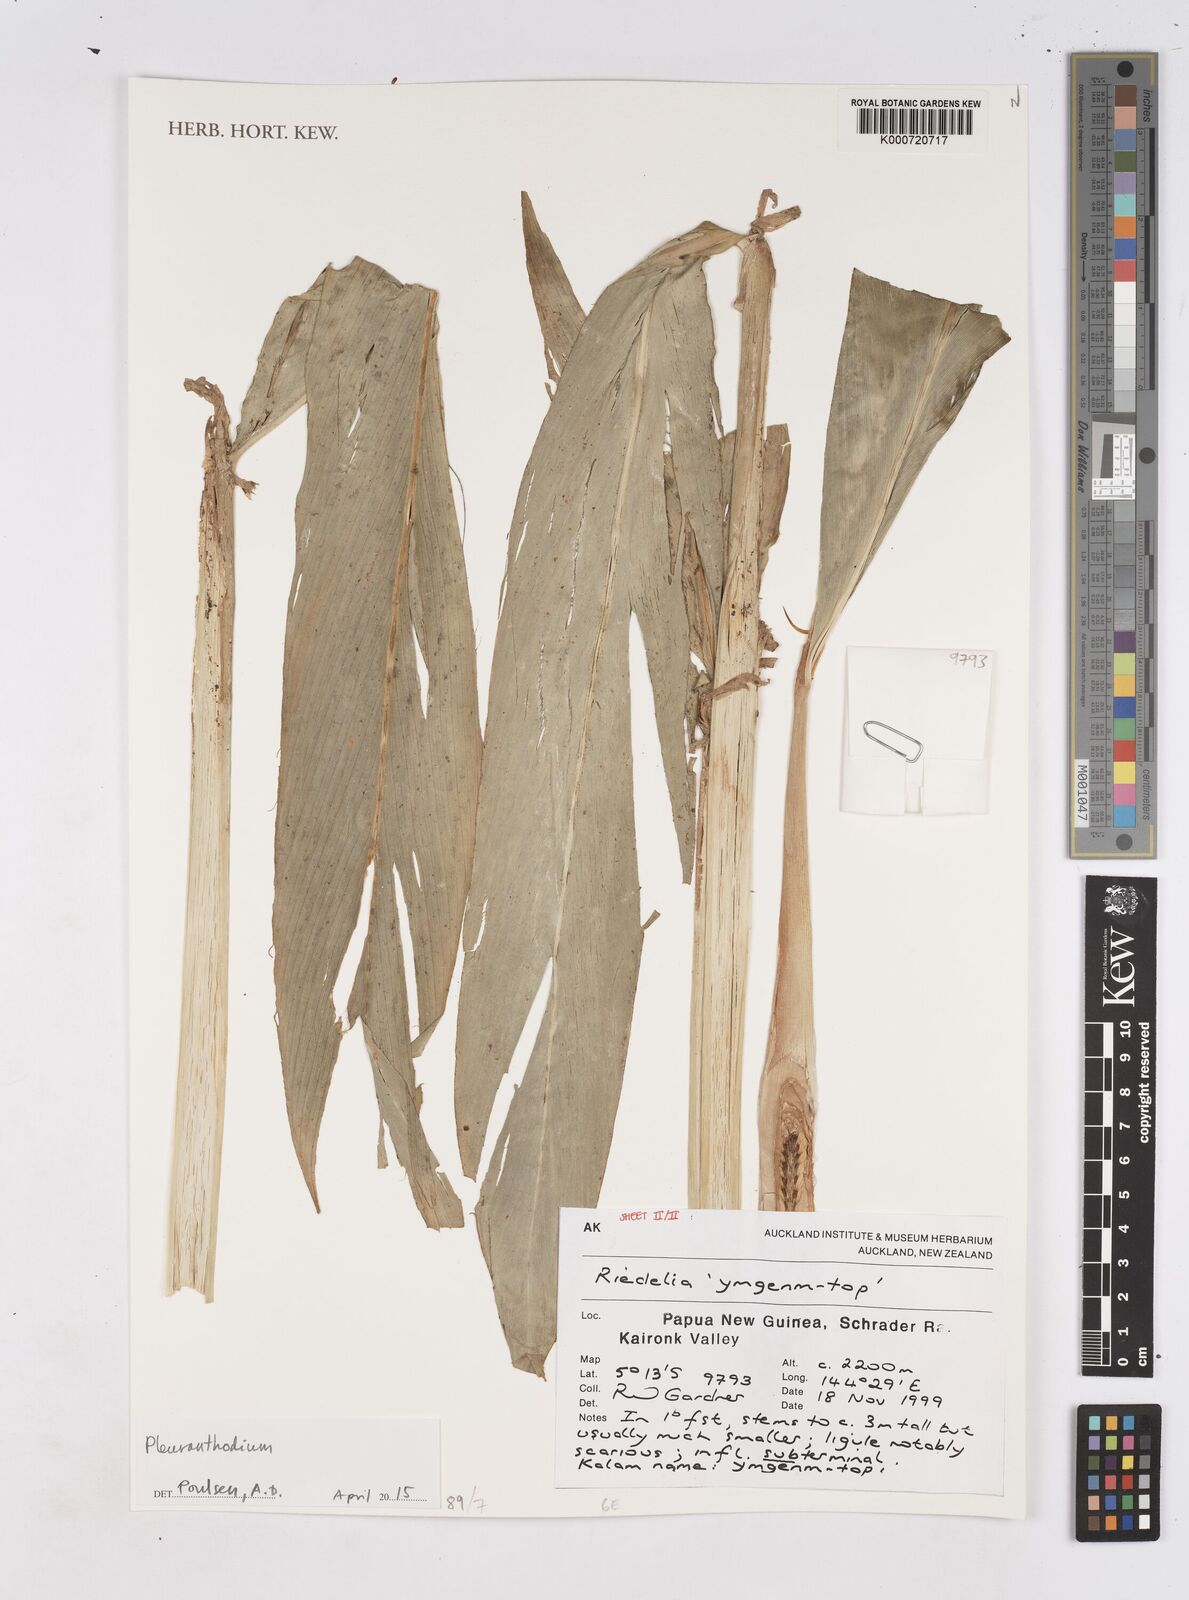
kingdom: Plantae
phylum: Tracheophyta
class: Liliopsida
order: Zingiberales
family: Zingiberaceae
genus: Pleuranthodium
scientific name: Pleuranthodium
